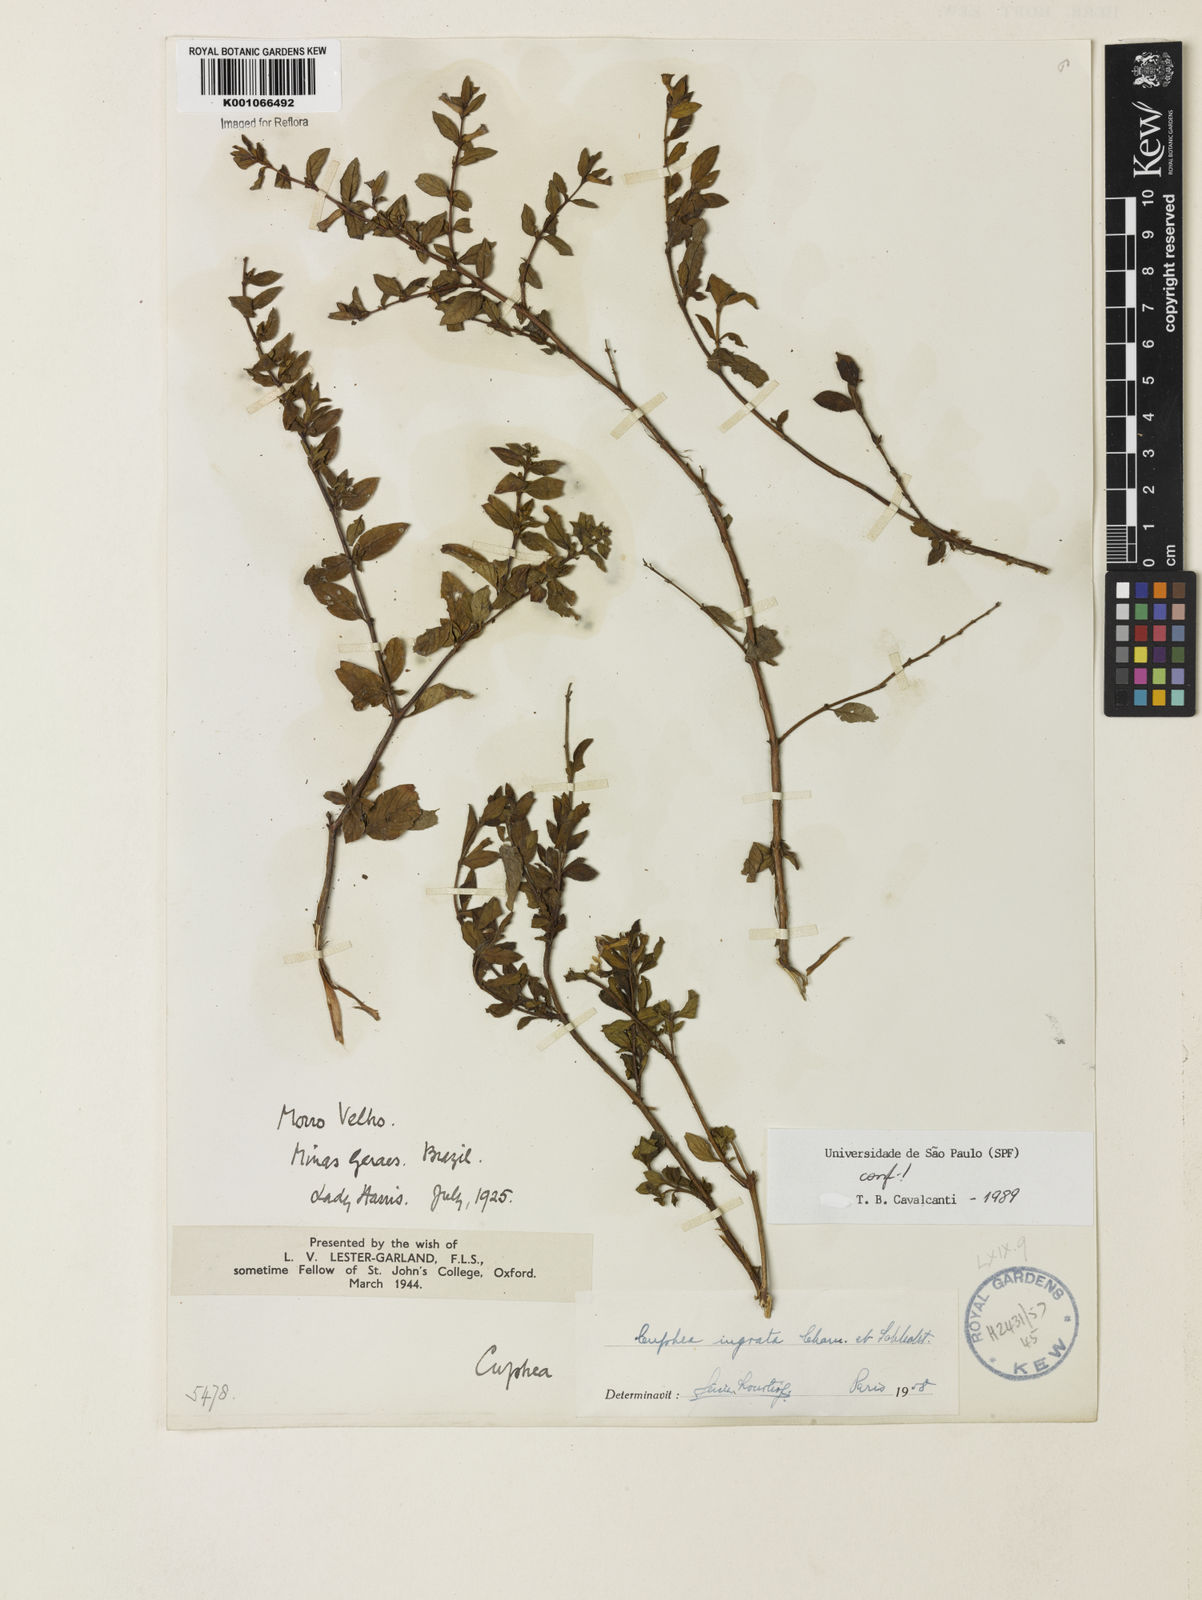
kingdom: Plantae
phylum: Tracheophyta
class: Magnoliopsida
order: Myrtales
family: Lythraceae
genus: Cuphea
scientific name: Cuphea ingrata
